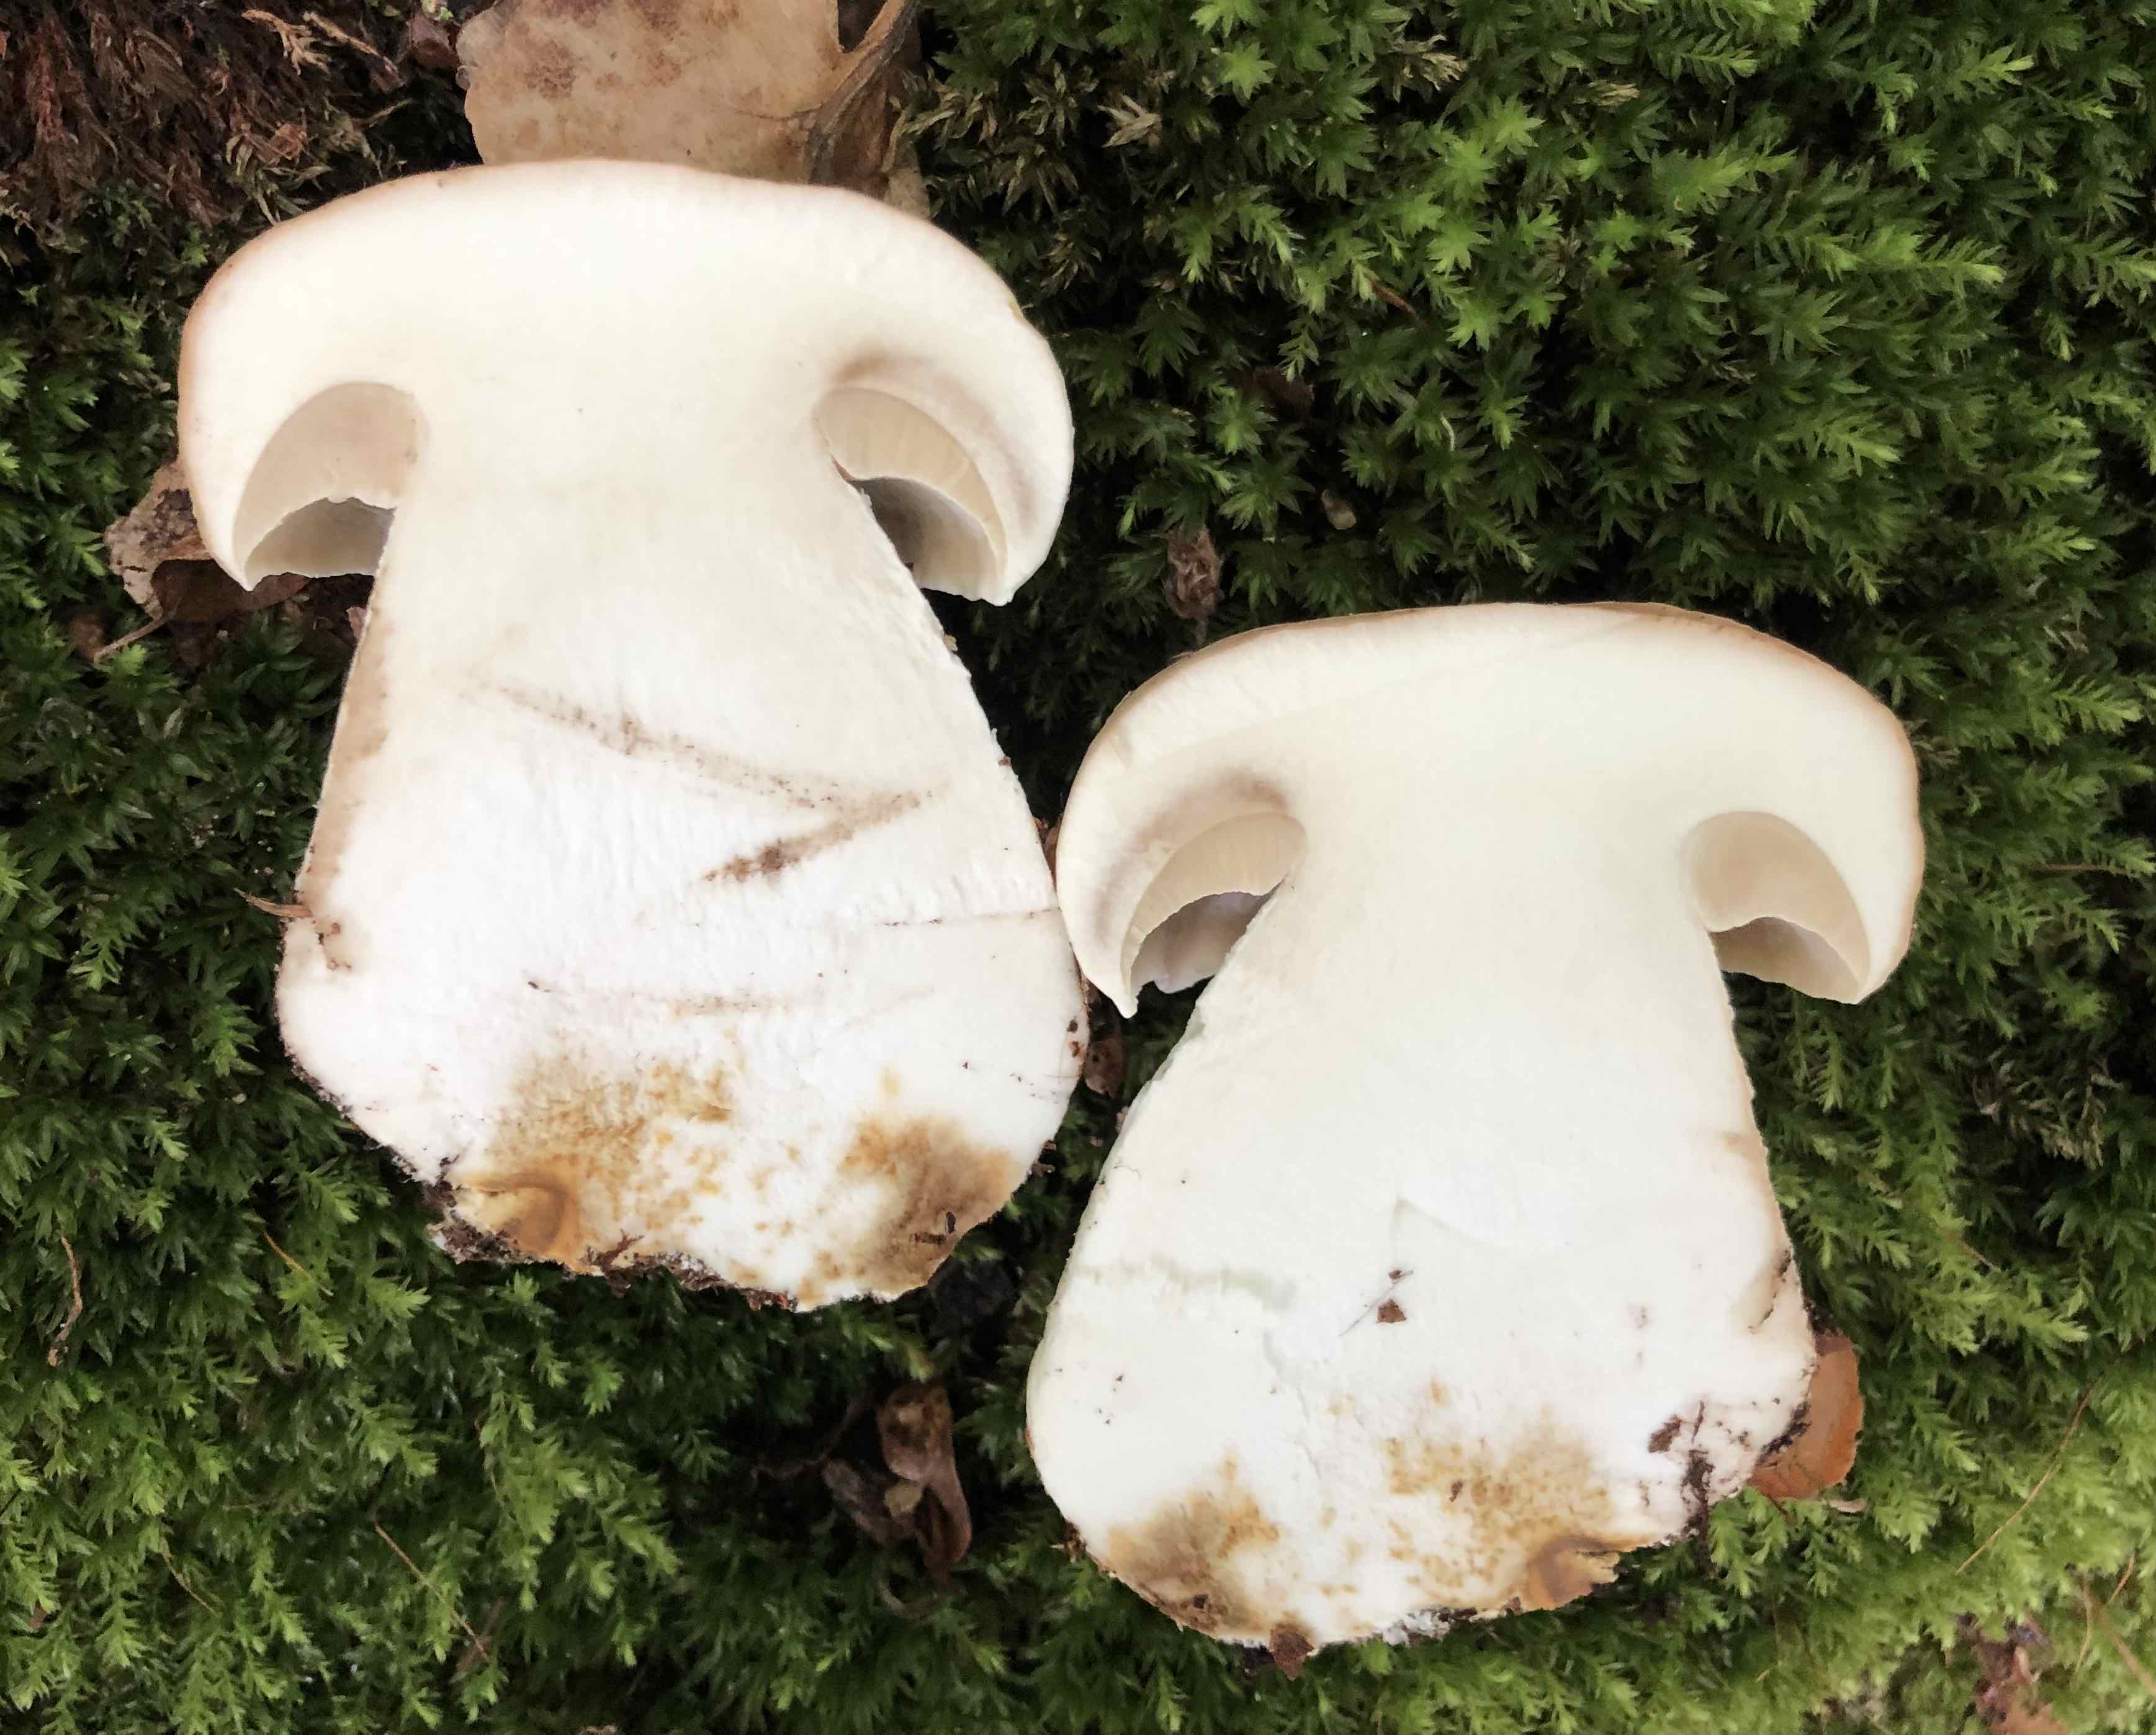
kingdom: Fungi
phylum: Basidiomycota
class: Agaricomycetes
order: Boletales
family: Boletaceae
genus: Boletus
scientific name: Boletus edulis
